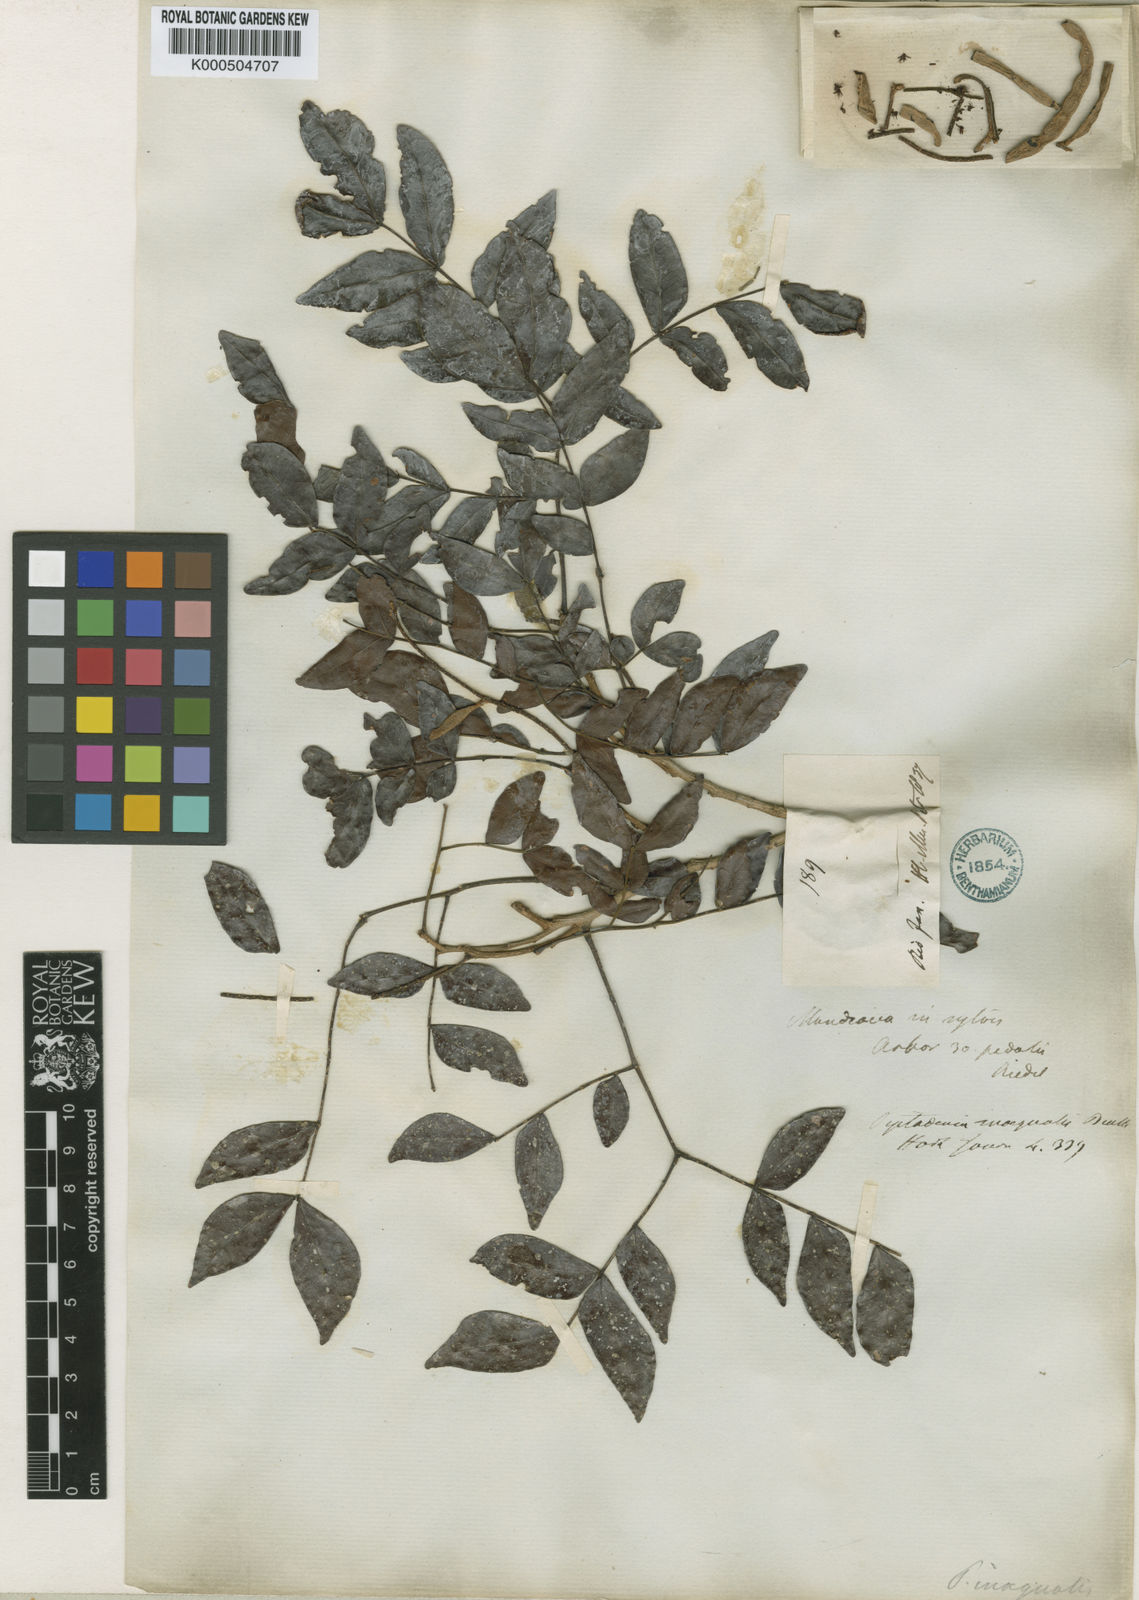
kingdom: Plantae
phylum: Tracheophyta
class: Magnoliopsida
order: Fabales
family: Fabaceae
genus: Pseudopiptadenia
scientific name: Pseudopiptadenia inaequalis
